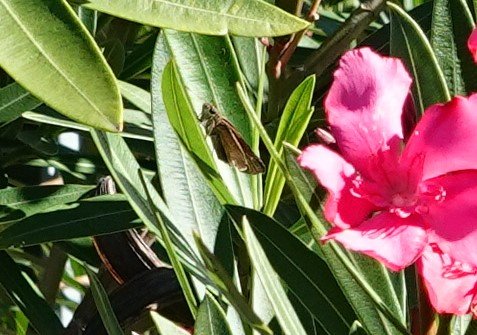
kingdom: Animalia
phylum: Arthropoda
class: Insecta
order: Lepidoptera
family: Hesperiidae
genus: Panoquina
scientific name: Panoquina ocola
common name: Ocola Skipper
